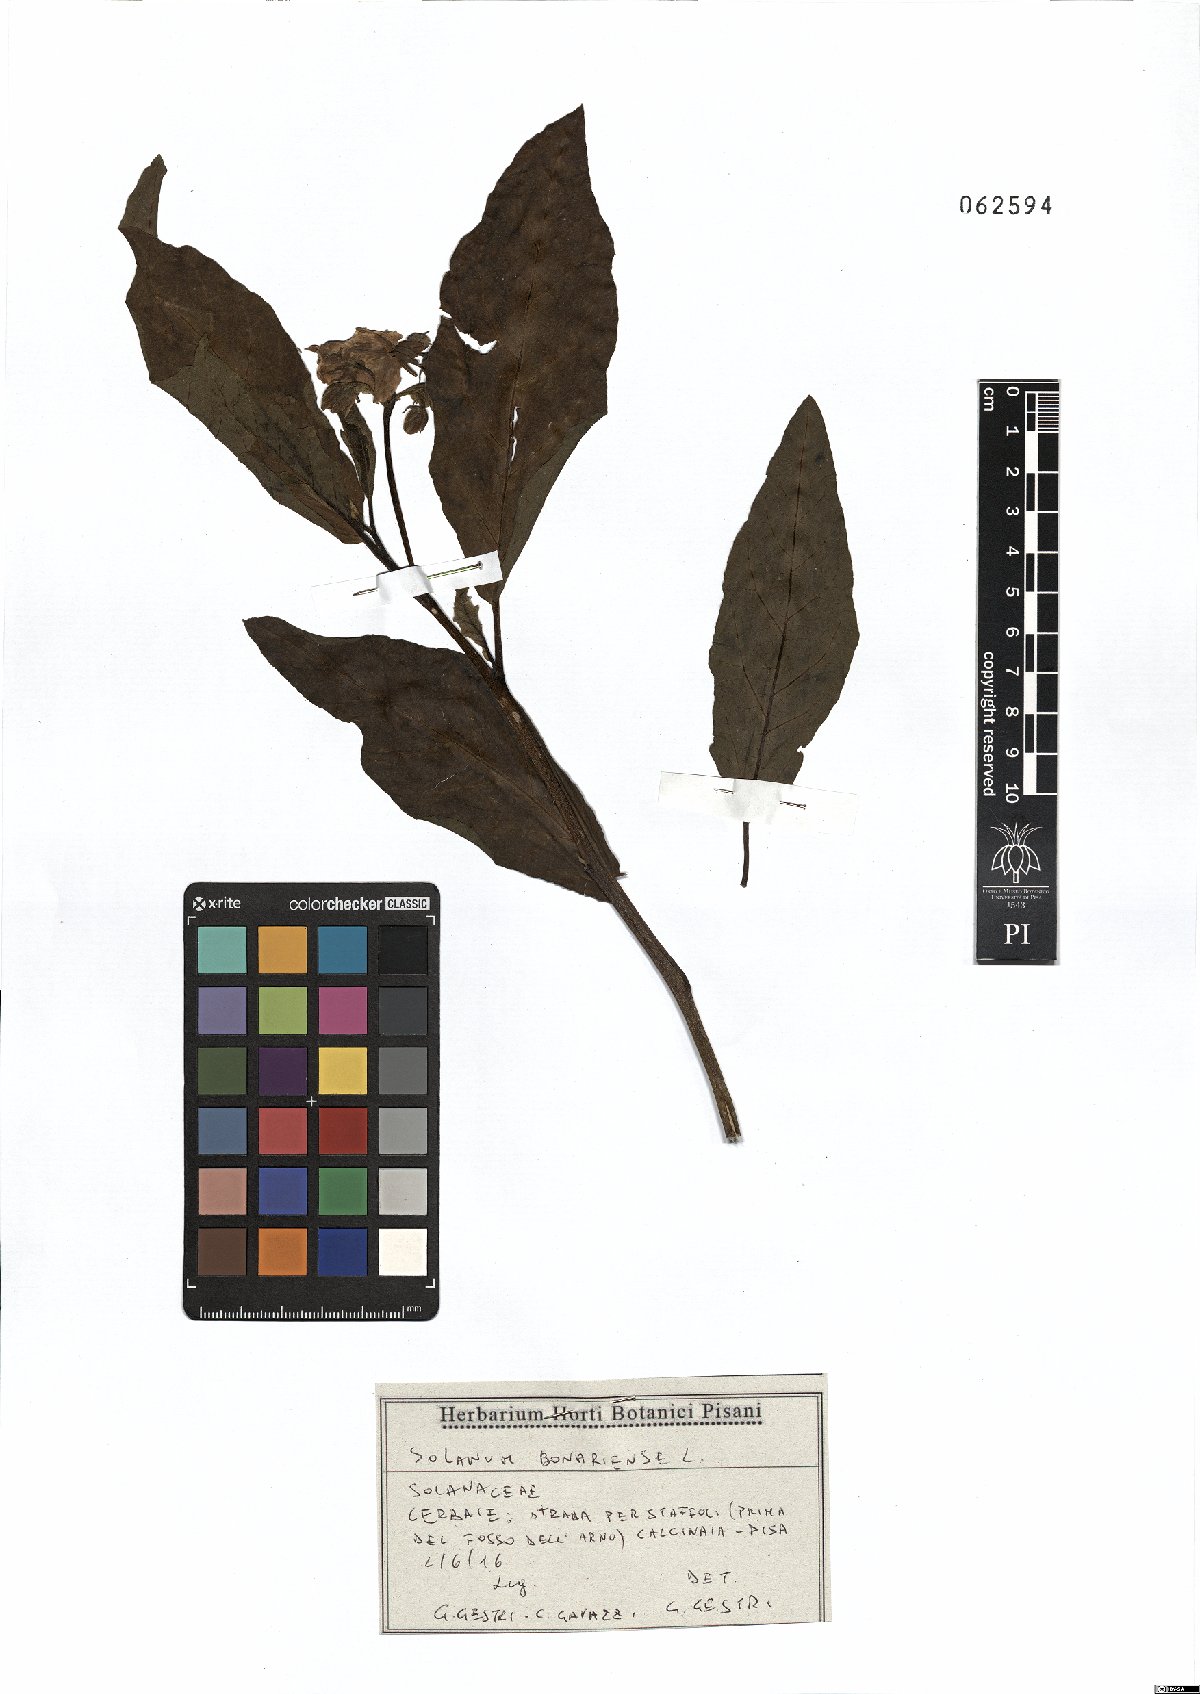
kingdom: Plantae
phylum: Tracheophyta
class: Magnoliopsida
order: Solanales
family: Solanaceae
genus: Solanum
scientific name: Solanum bonariense
